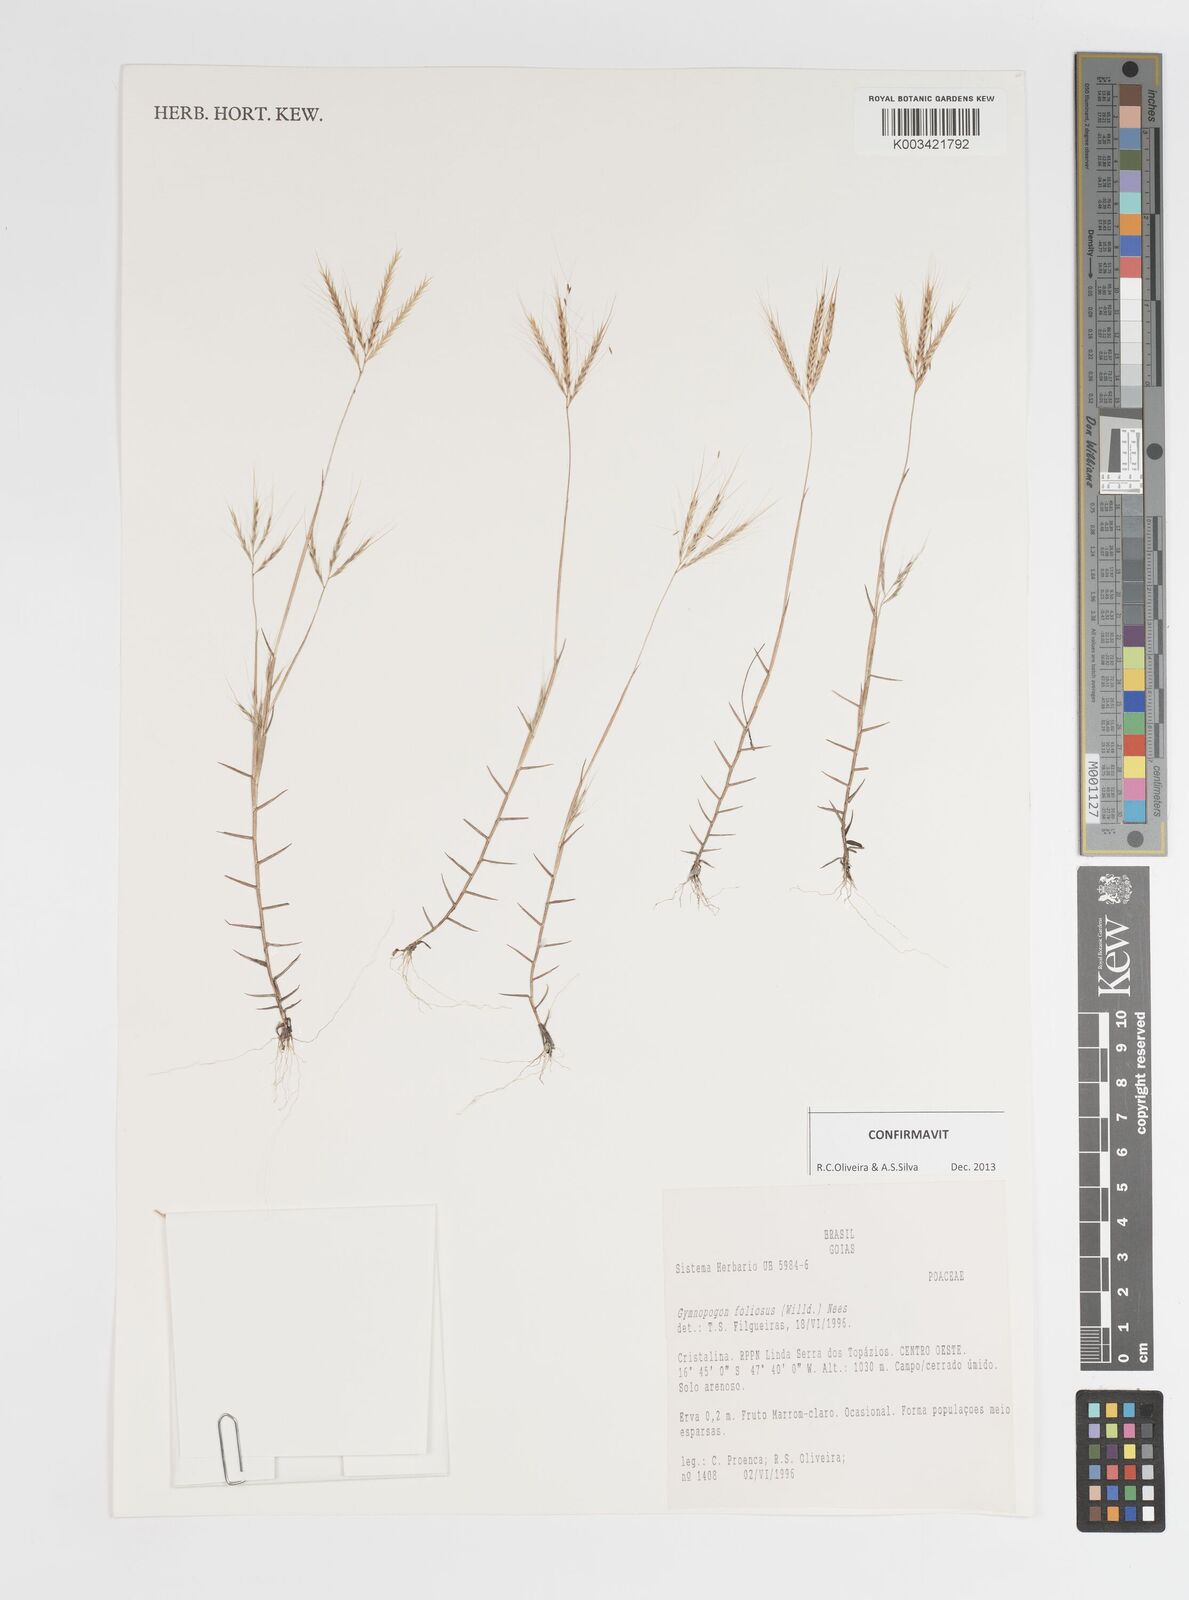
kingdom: Plantae
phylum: Tracheophyta
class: Liliopsida
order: Poales
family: Poaceae
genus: Gymnopogon
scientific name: Gymnopogon foliosus
